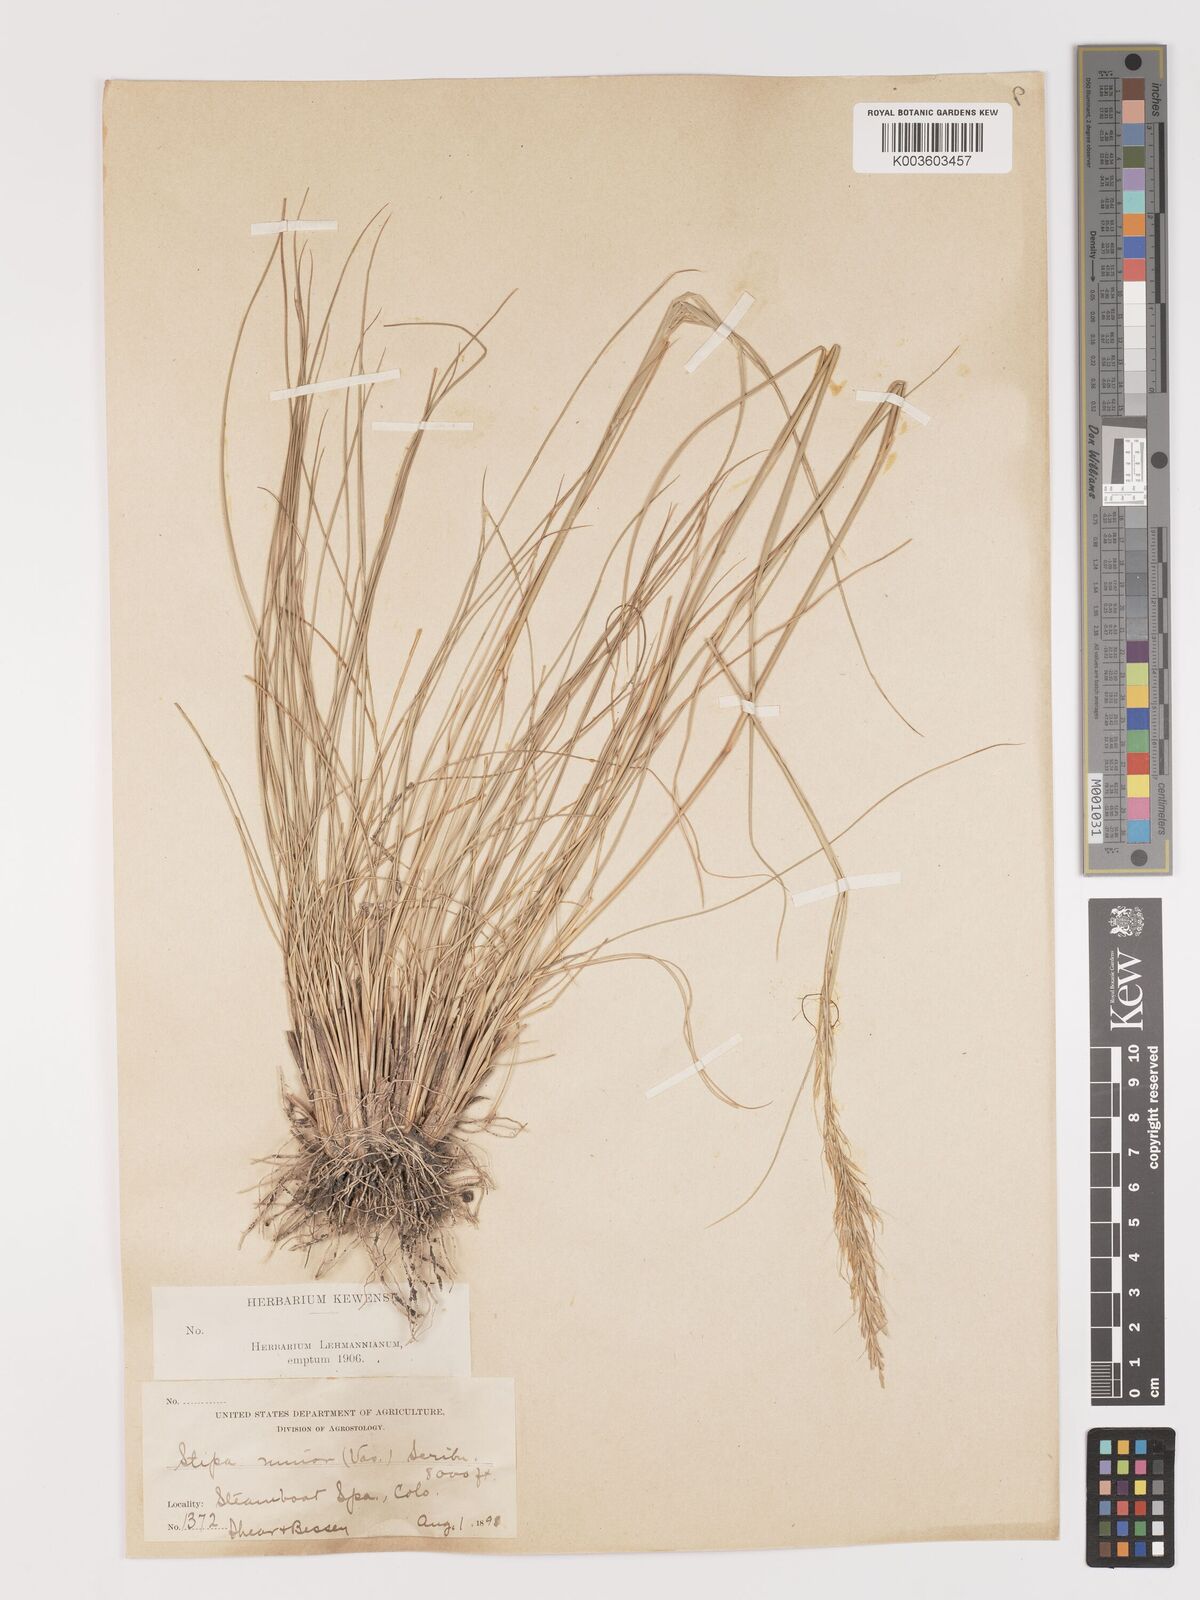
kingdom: Plantae
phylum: Tracheophyta
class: Liliopsida
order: Poales
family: Poaceae
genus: Eriocoma
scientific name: Eriocoma nelsonii
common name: Nelson's needlegrass
